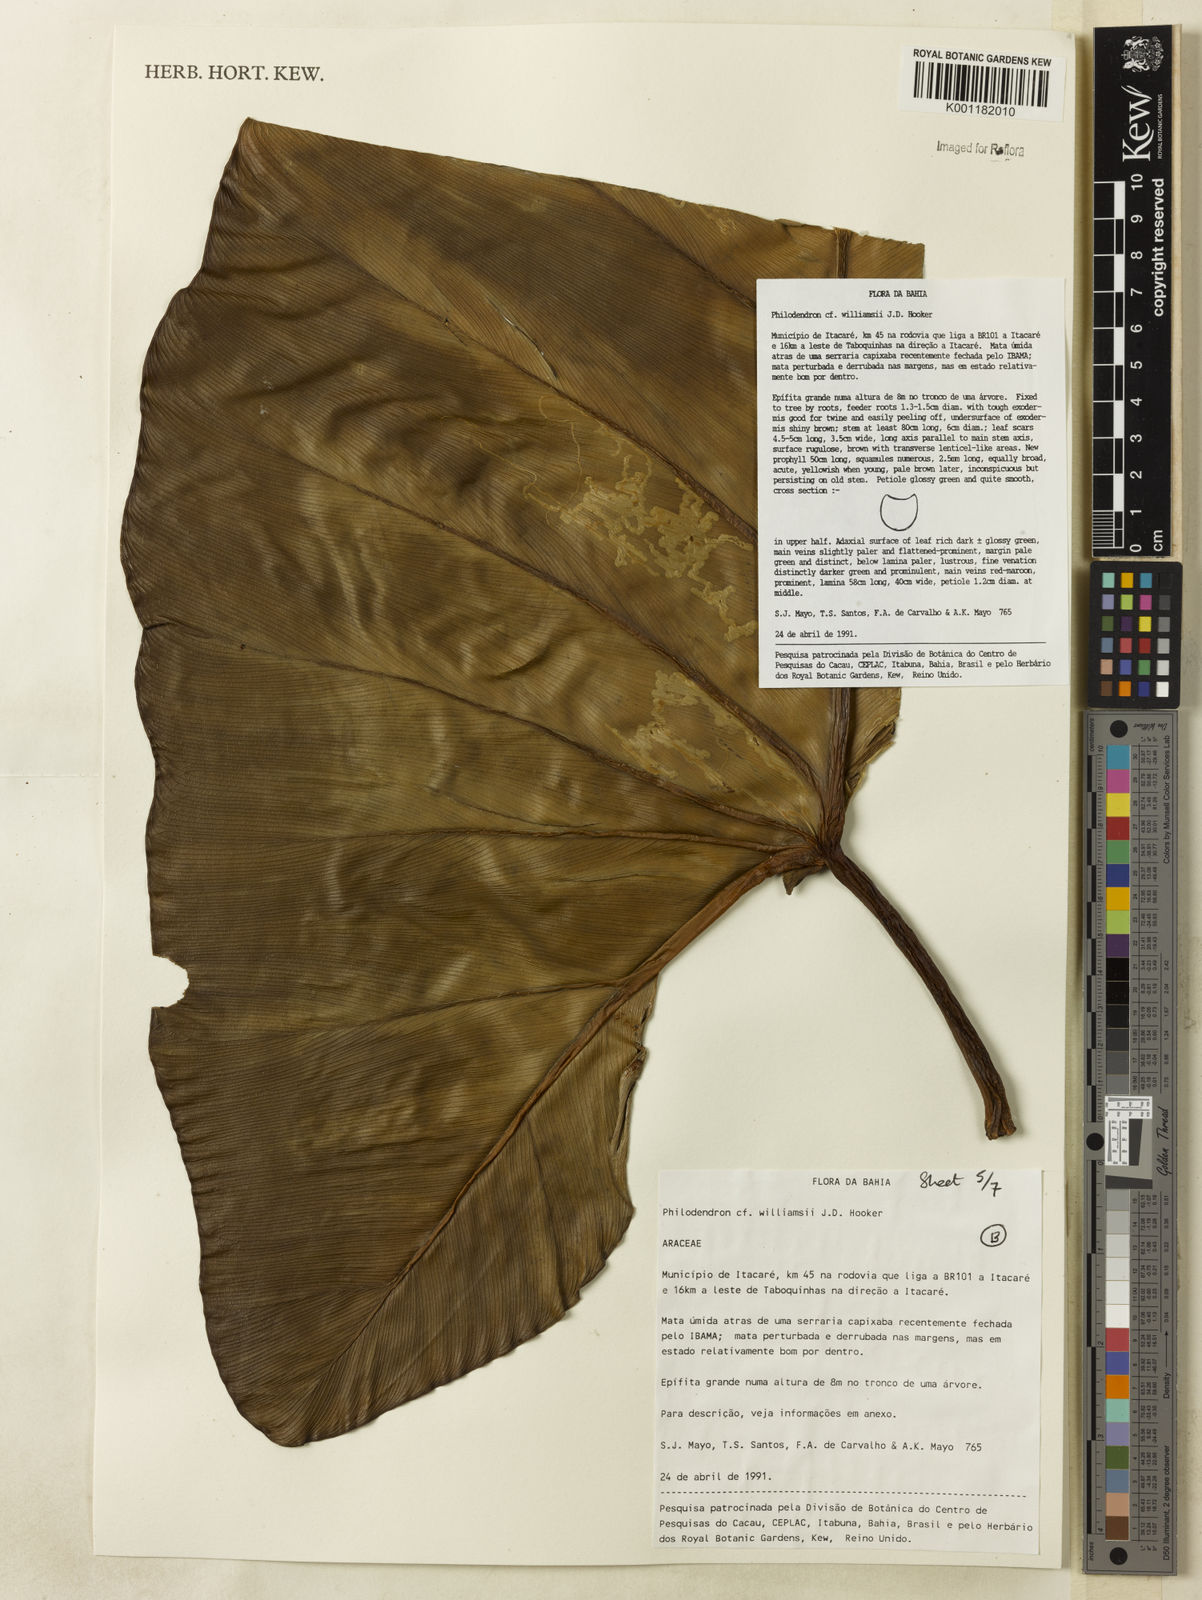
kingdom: Plantae
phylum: Tracheophyta
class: Liliopsida
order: Alismatales
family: Araceae
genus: Thaumatophyllum
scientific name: Thaumatophyllum williamsii
